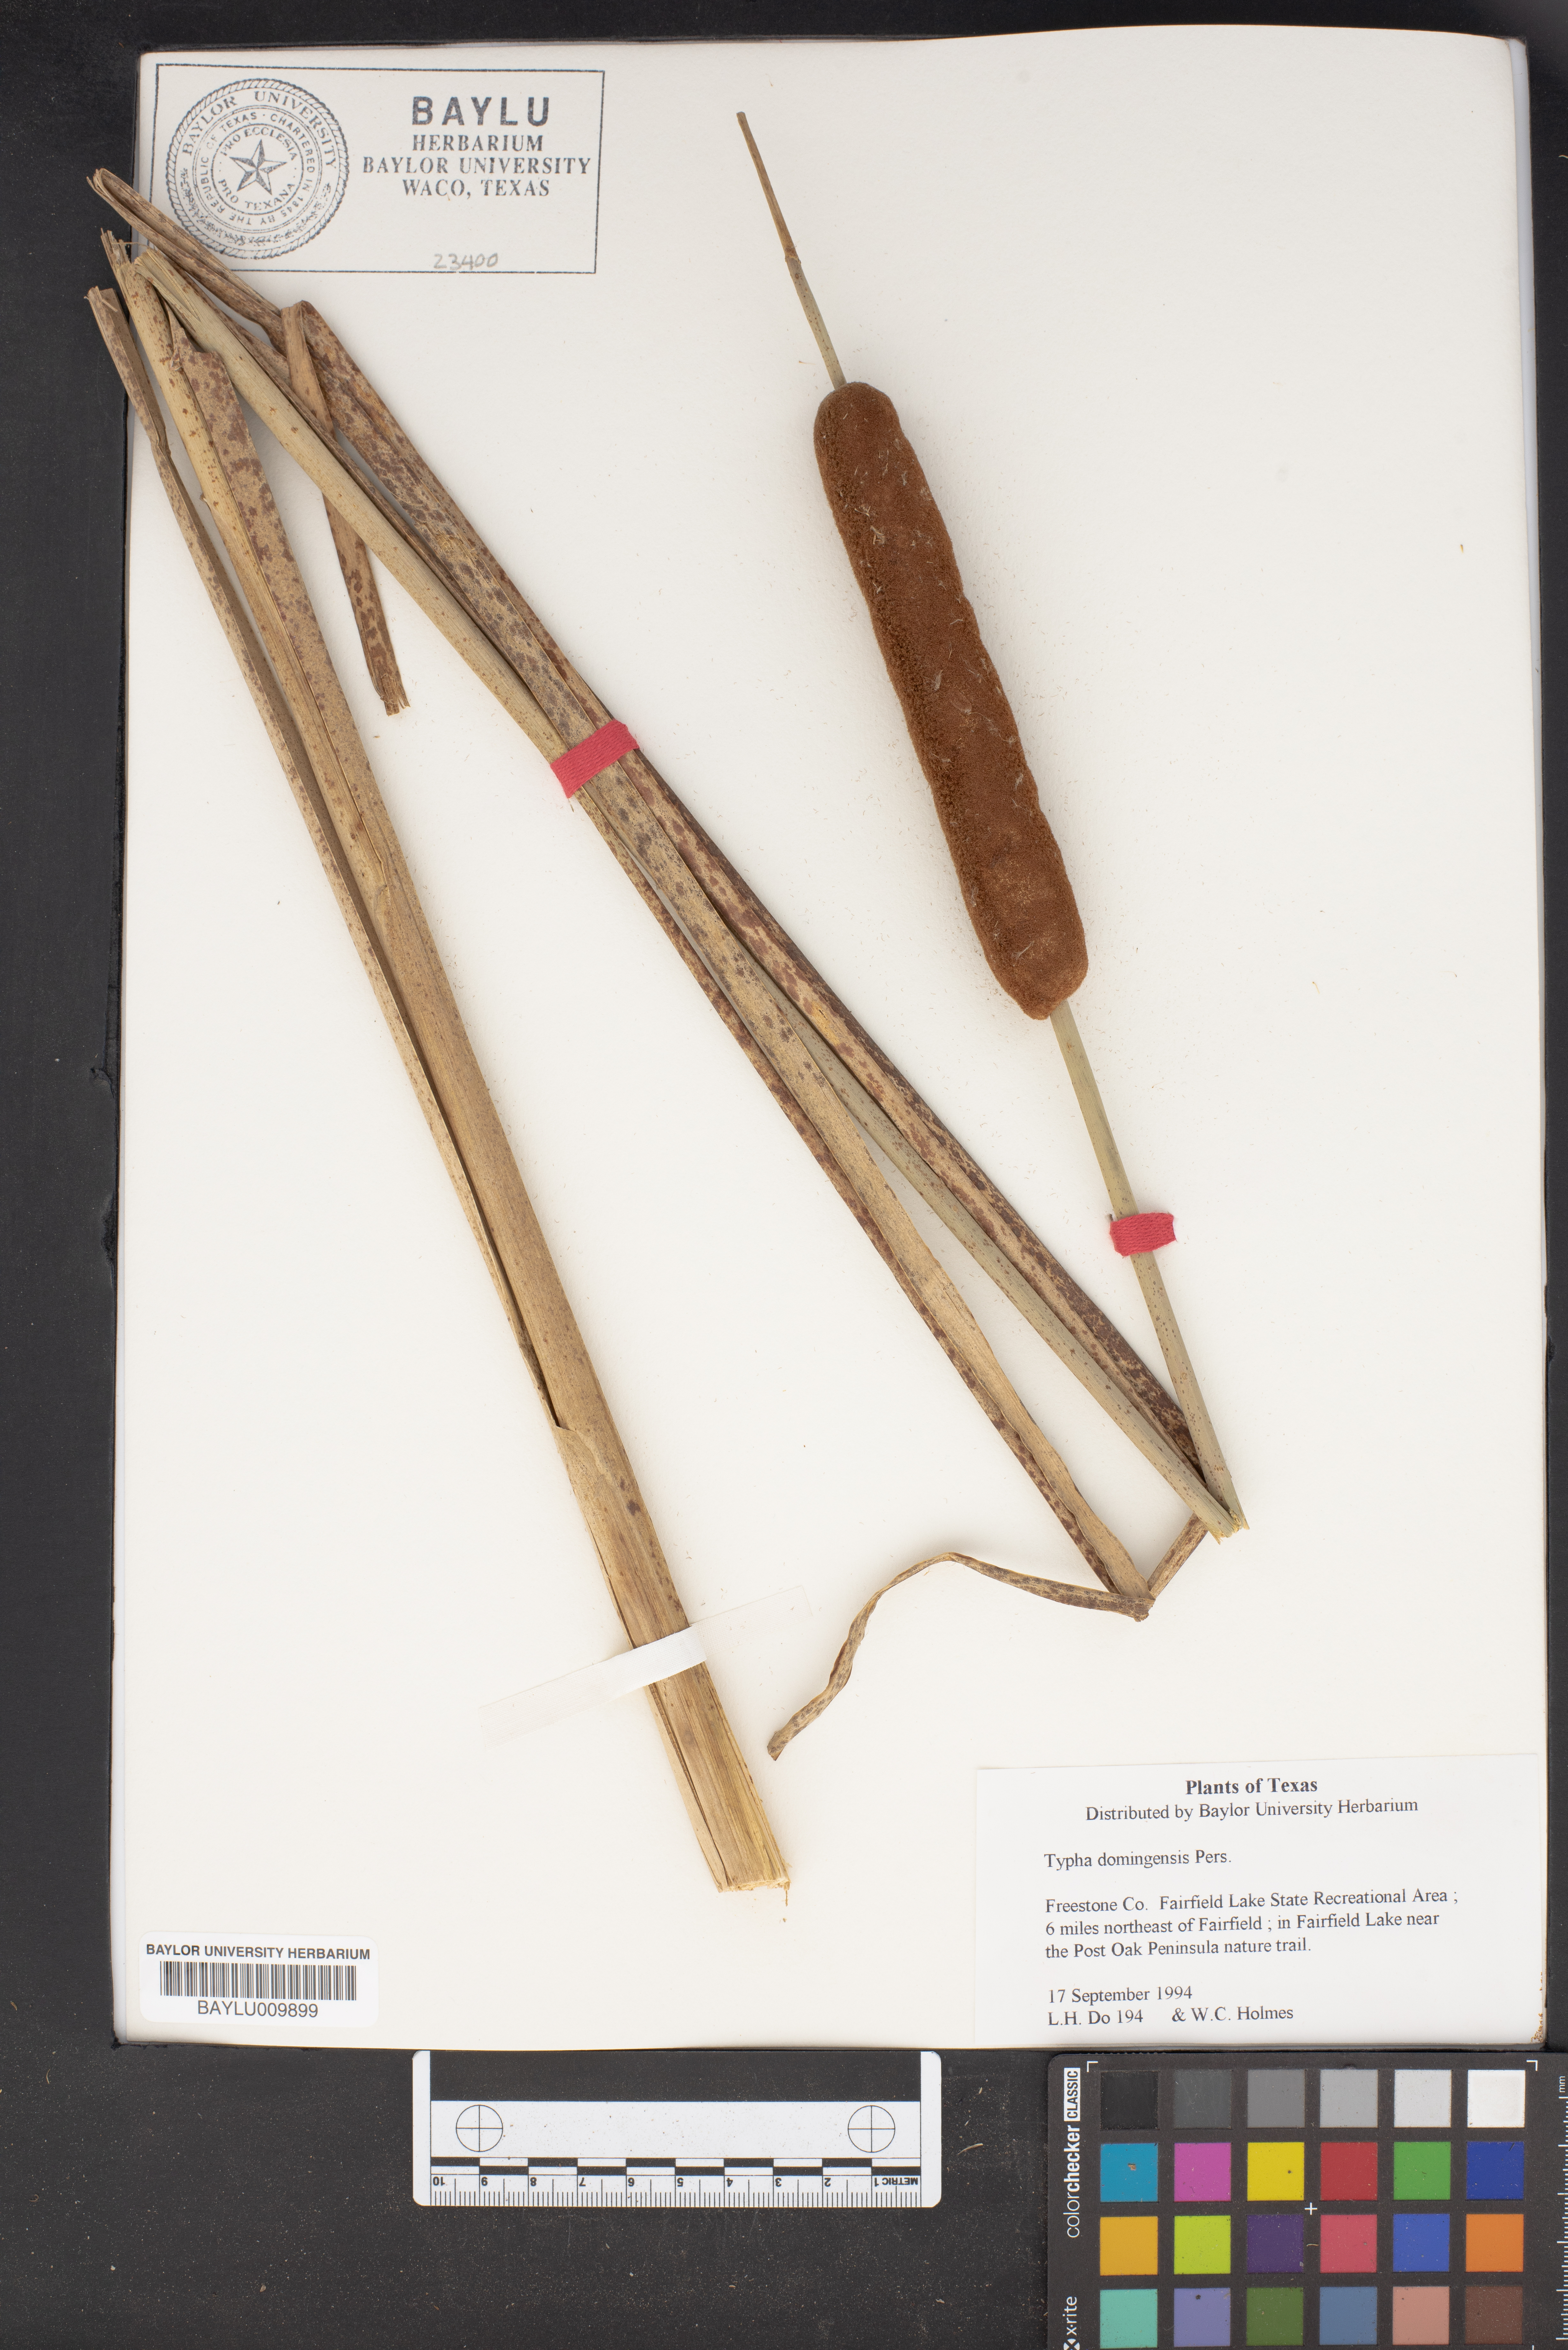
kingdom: Plantae
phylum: Tracheophyta
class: Liliopsida
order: Poales
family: Typhaceae
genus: Typha
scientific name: Typha domingensis
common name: Southern cattail
